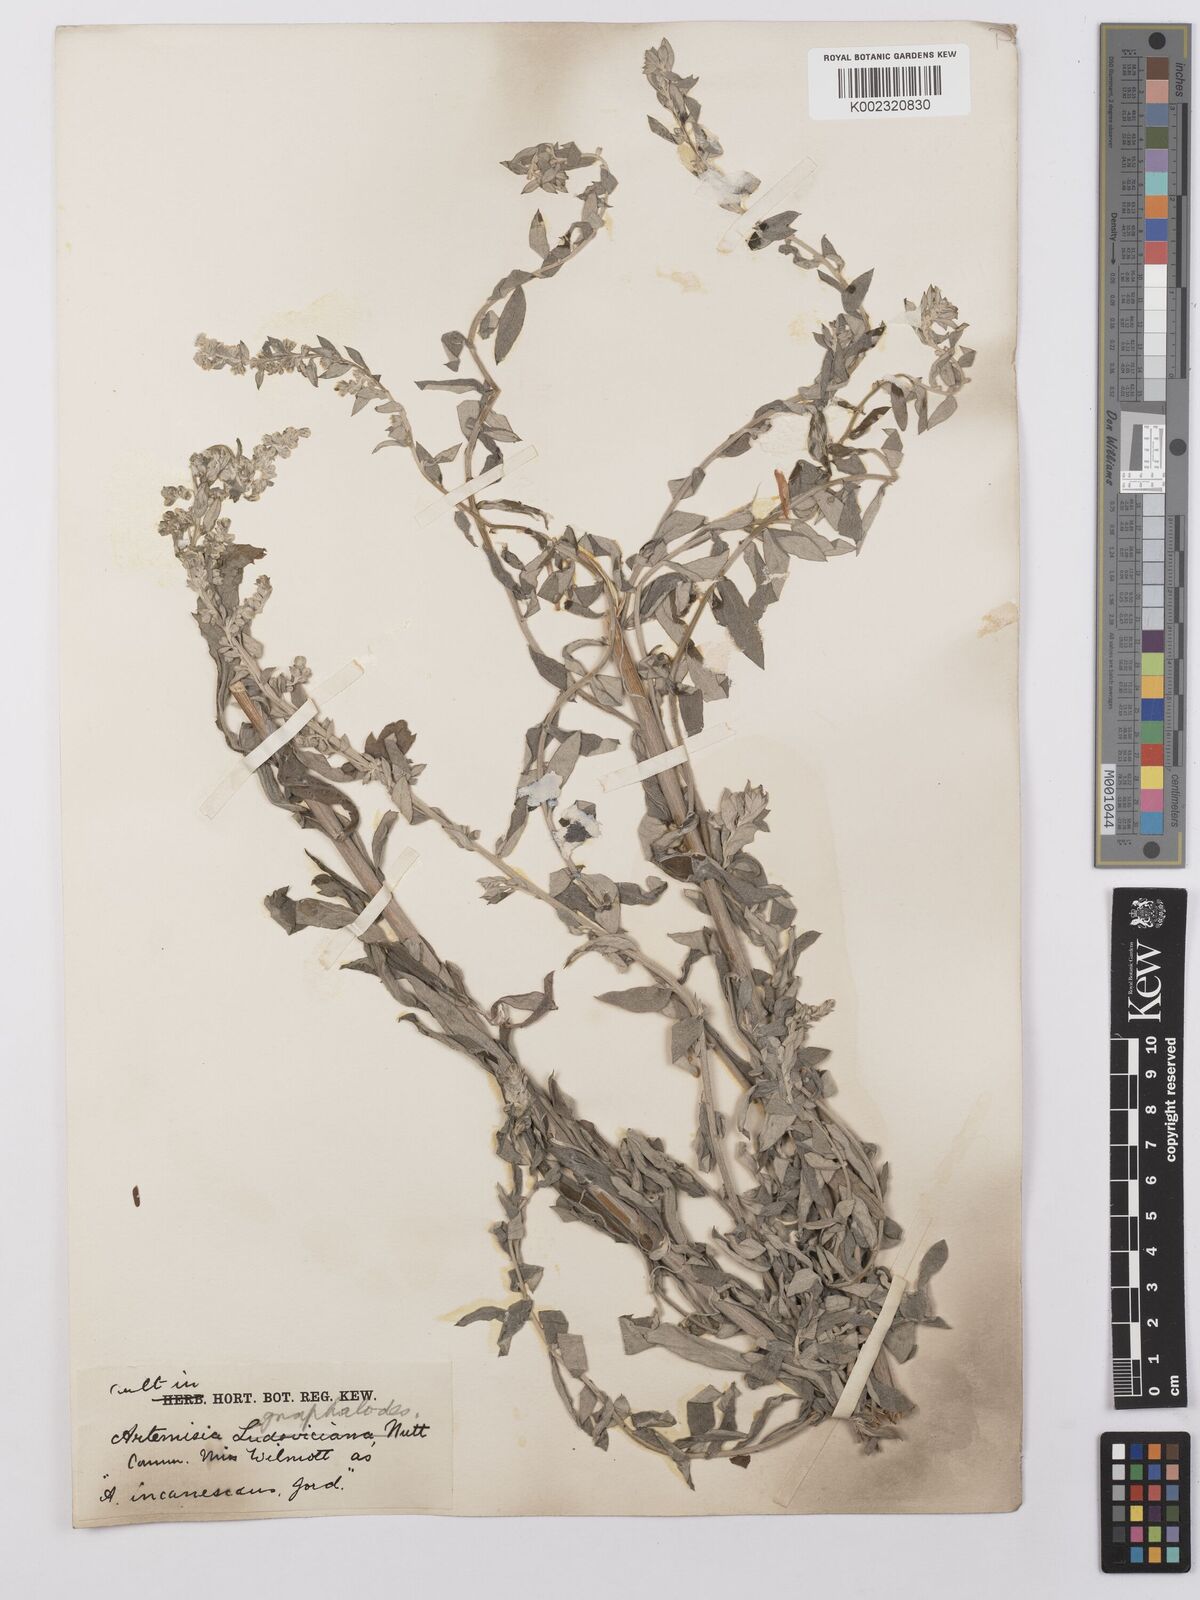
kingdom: Plantae
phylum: Tracheophyta
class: Magnoliopsida
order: Asterales
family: Asteraceae
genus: Artemisia
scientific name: Artemisia ludoviciana
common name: Western mugwort
